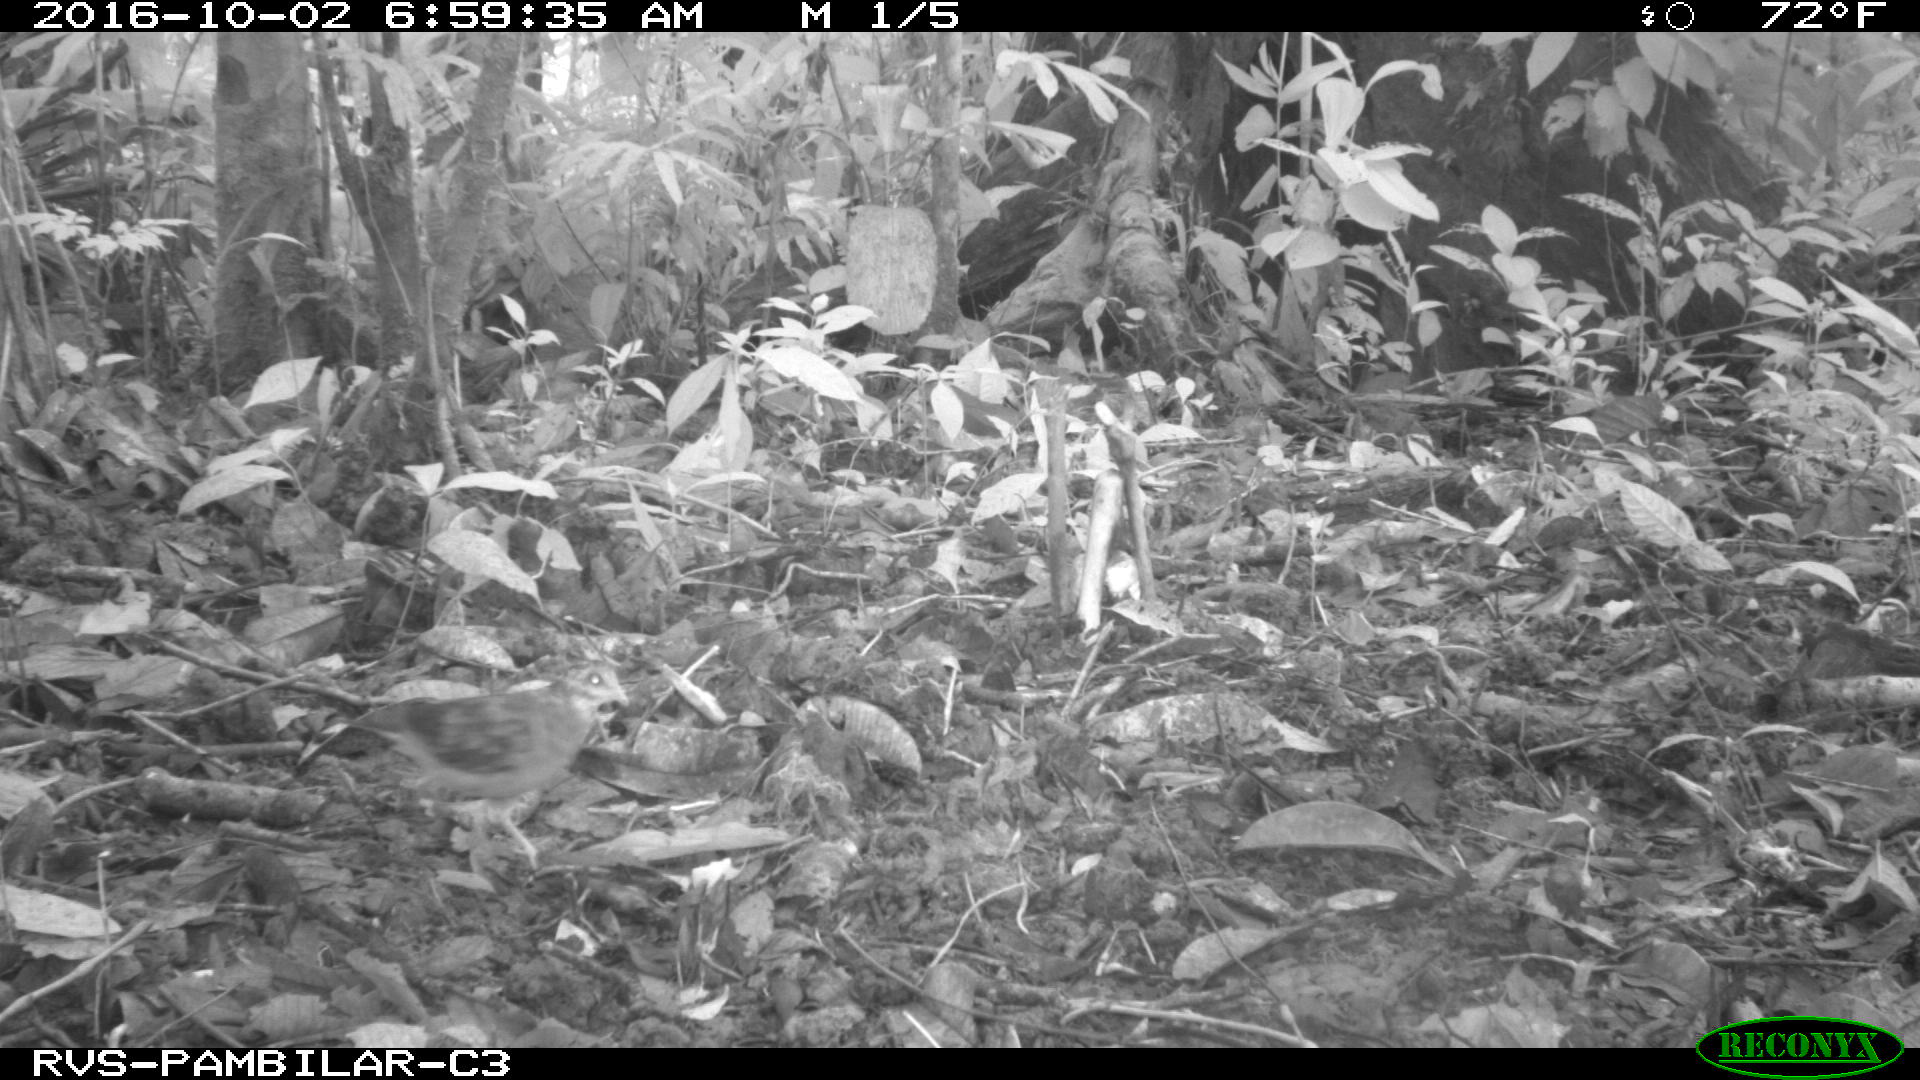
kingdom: Animalia
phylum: Chordata
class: Aves
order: Columbiformes
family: Columbidae
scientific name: Columbidae
